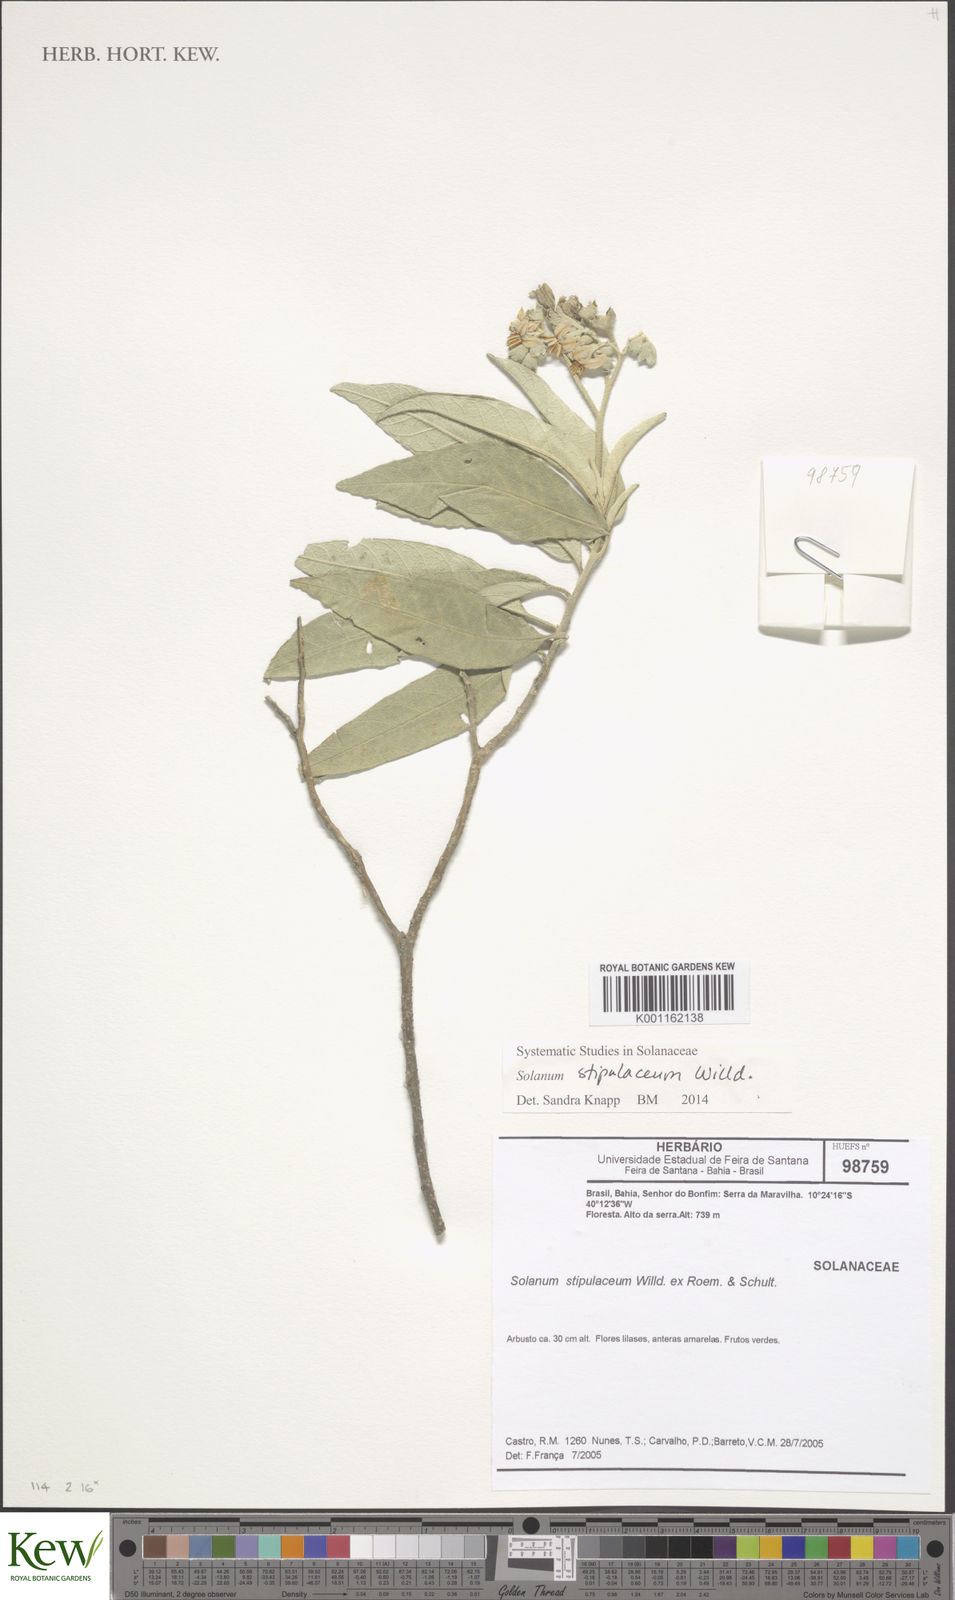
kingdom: Plantae
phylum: Tracheophyta
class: Magnoliopsida
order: Solanales
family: Solanaceae
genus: Solanum
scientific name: Solanum stipulaceum
